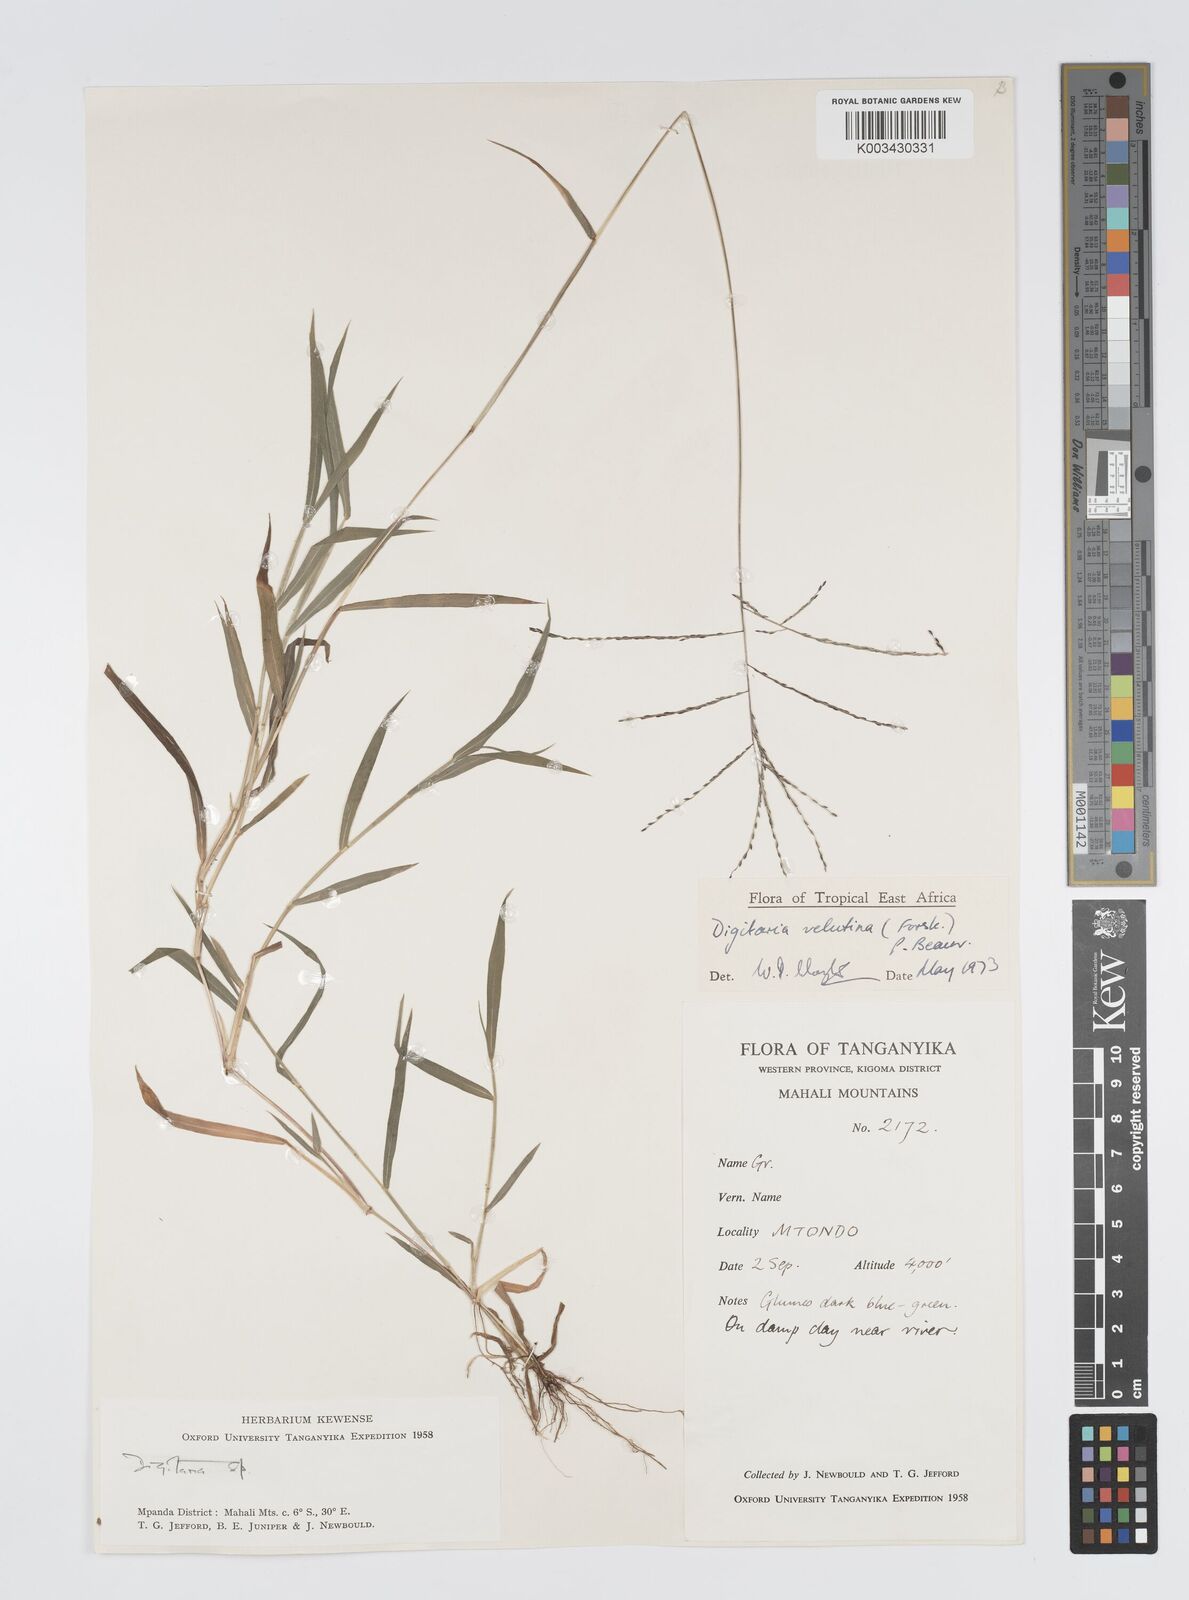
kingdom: Plantae
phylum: Tracheophyta
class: Liliopsida
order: Poales
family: Poaceae
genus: Digitaria
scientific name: Digitaria velutina
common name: Long-plume finger grass
